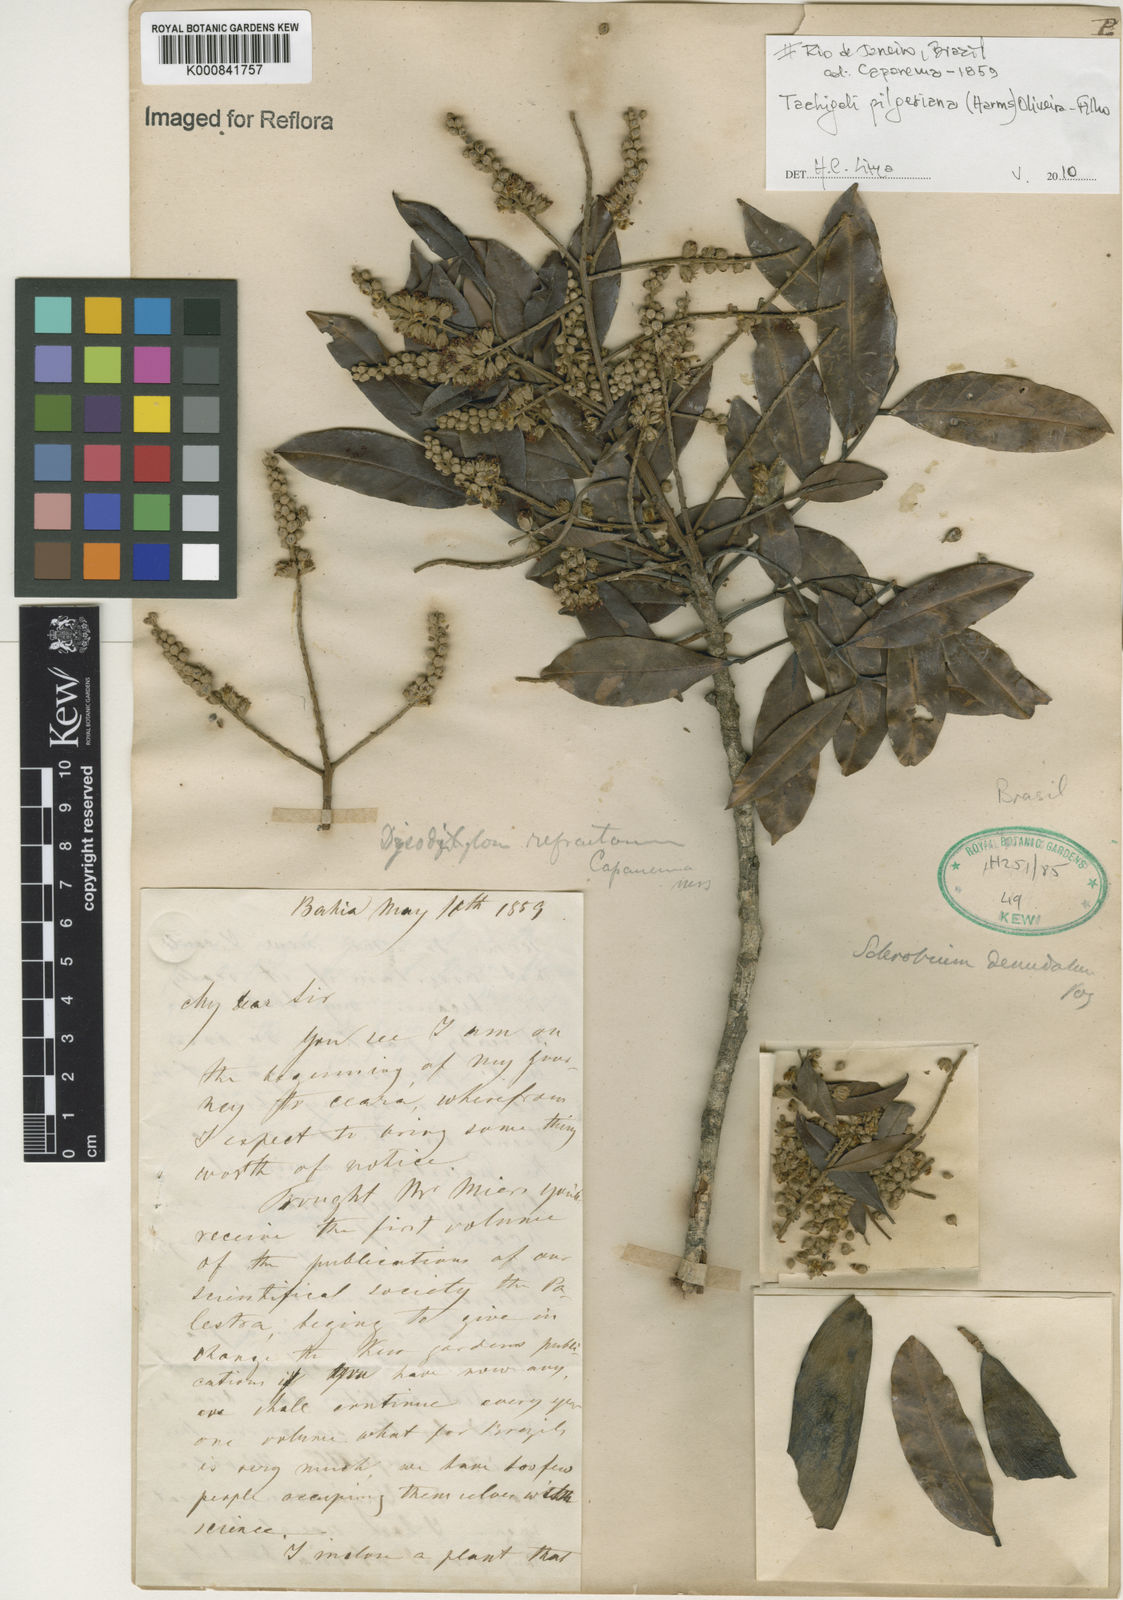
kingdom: Plantae
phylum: Tracheophyta
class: Magnoliopsida
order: Fabales
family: Fabaceae
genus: Tachigali
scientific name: Tachigali pilgeriana
